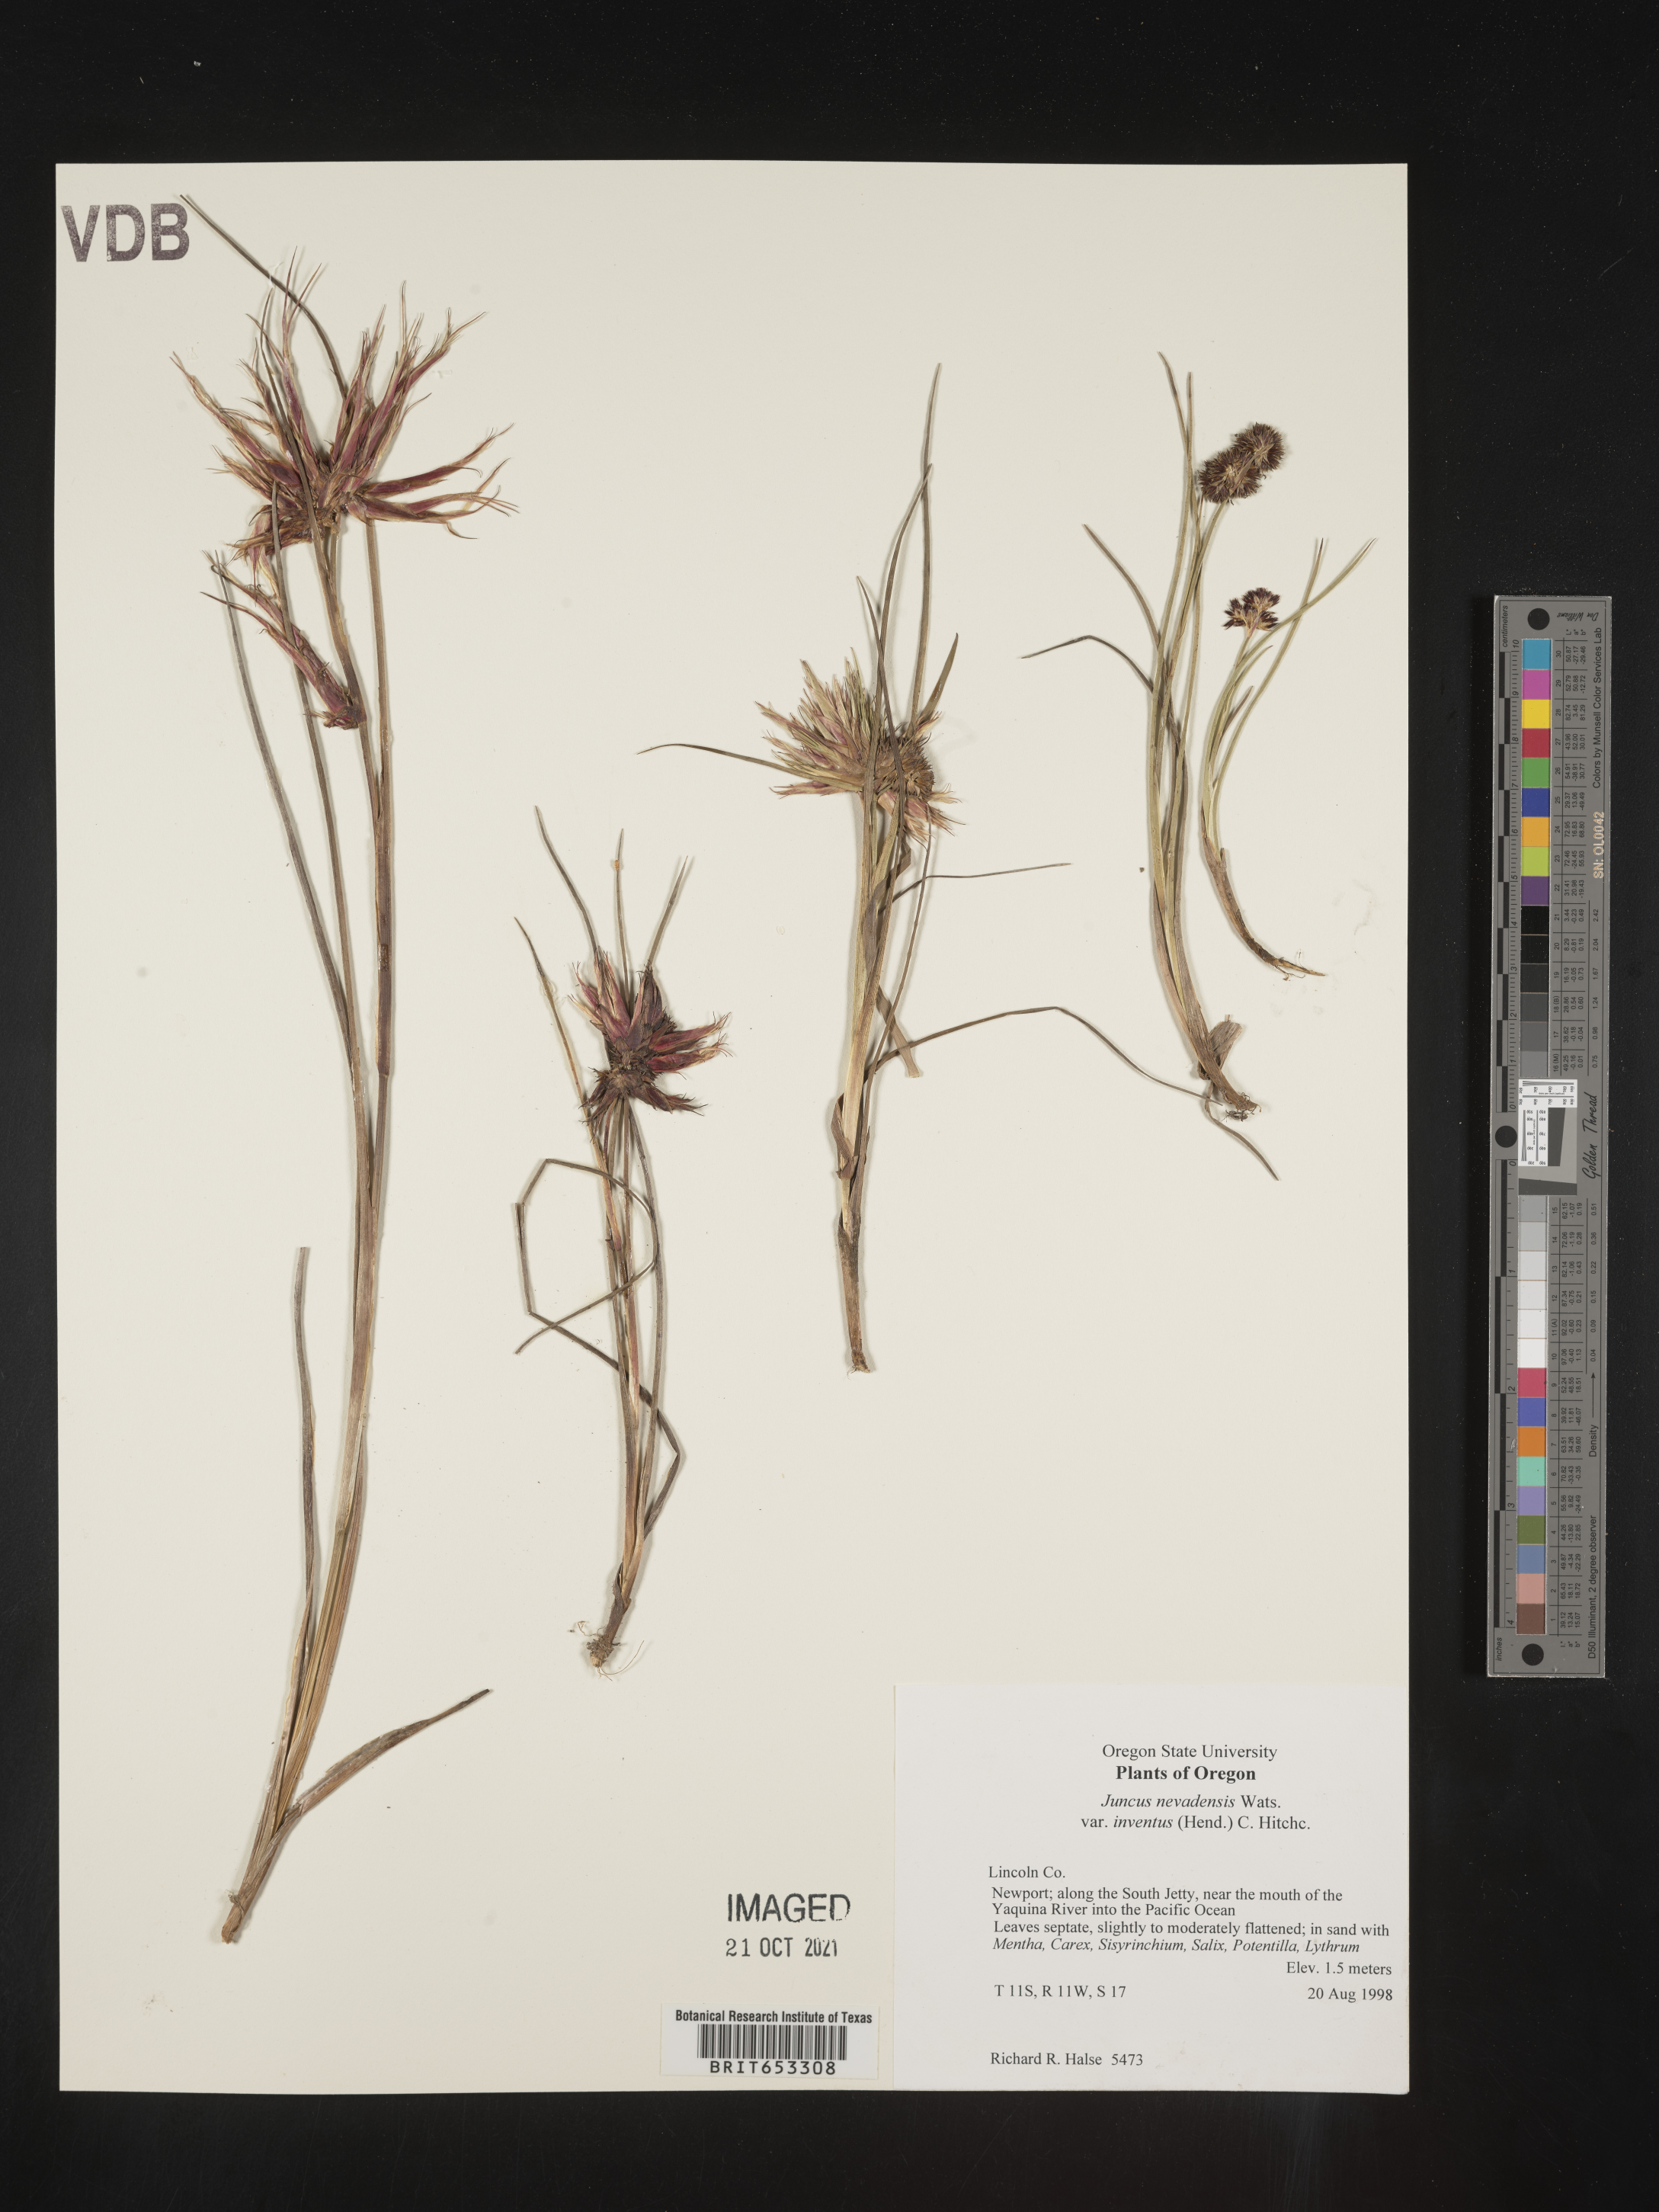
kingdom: Plantae
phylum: Tracheophyta
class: Liliopsida
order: Poales
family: Juncaceae
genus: Juncus
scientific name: Juncus nevadensis
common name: Nevada rush
